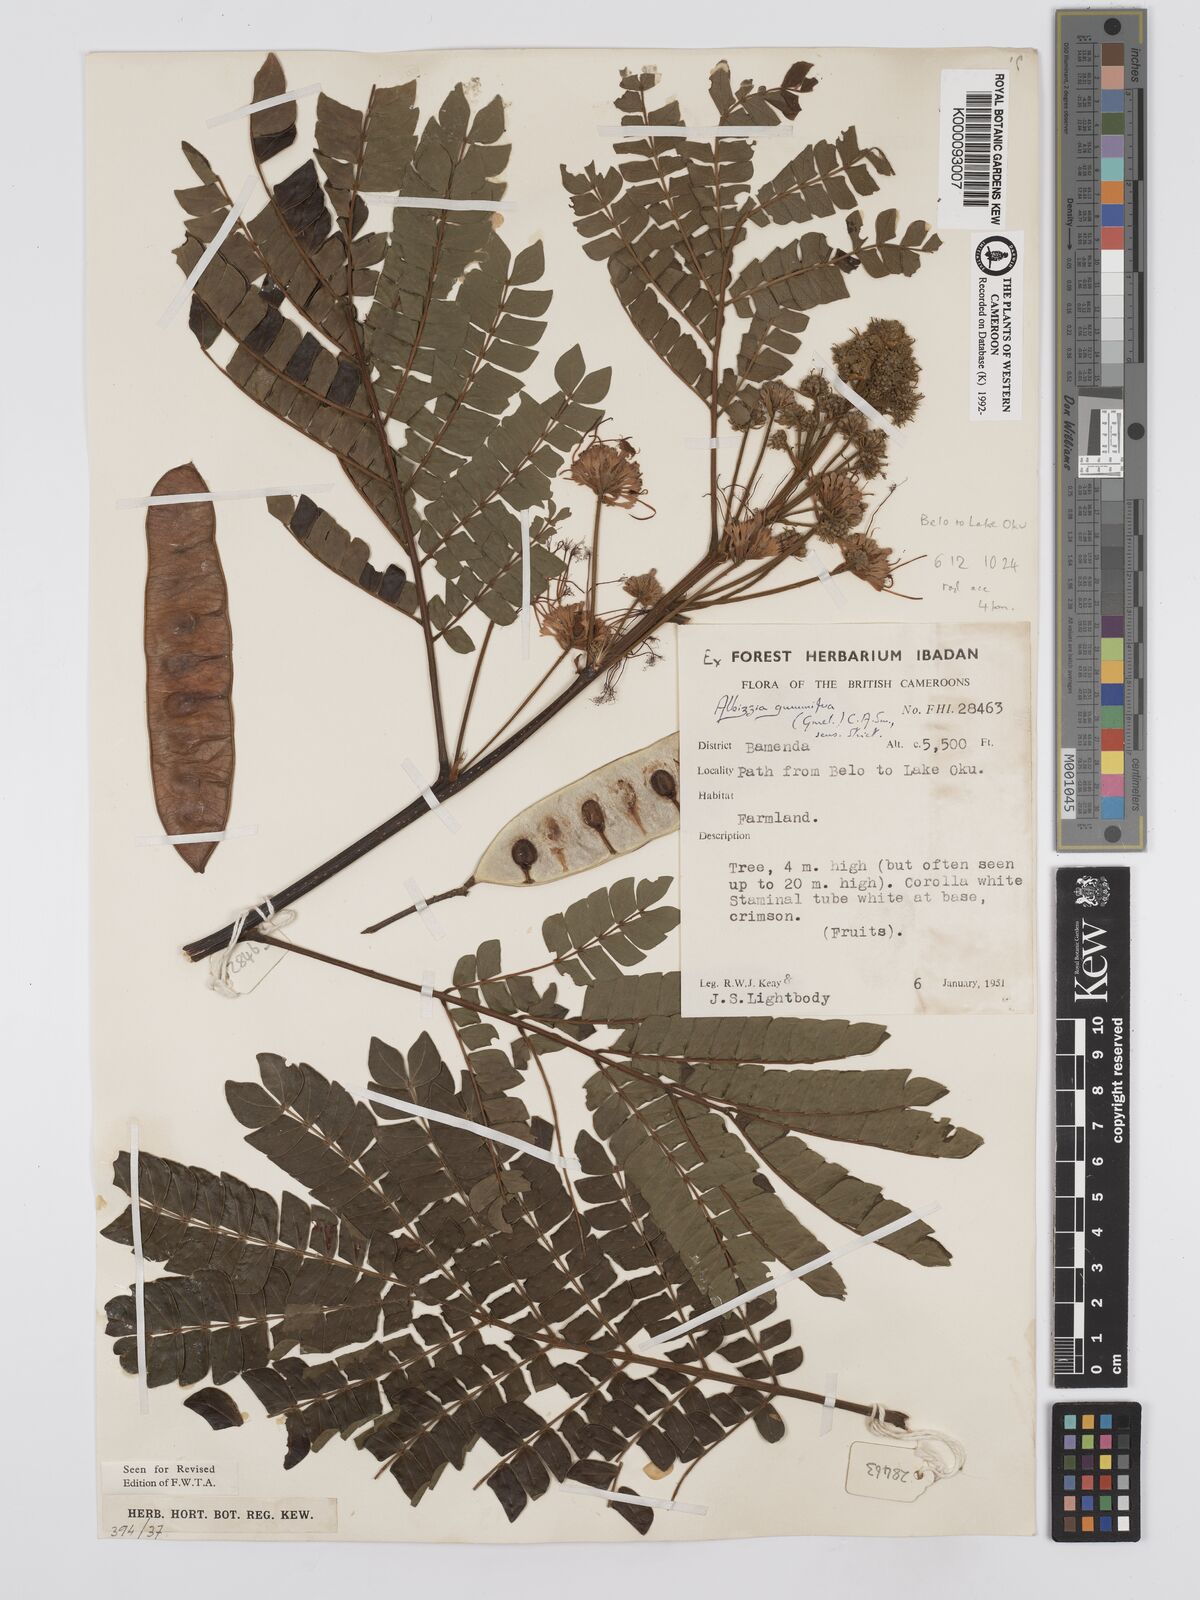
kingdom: Plantae
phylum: Tracheophyta
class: Magnoliopsida
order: Fabales
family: Fabaceae
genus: Albizia
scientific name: Albizia gummifera
